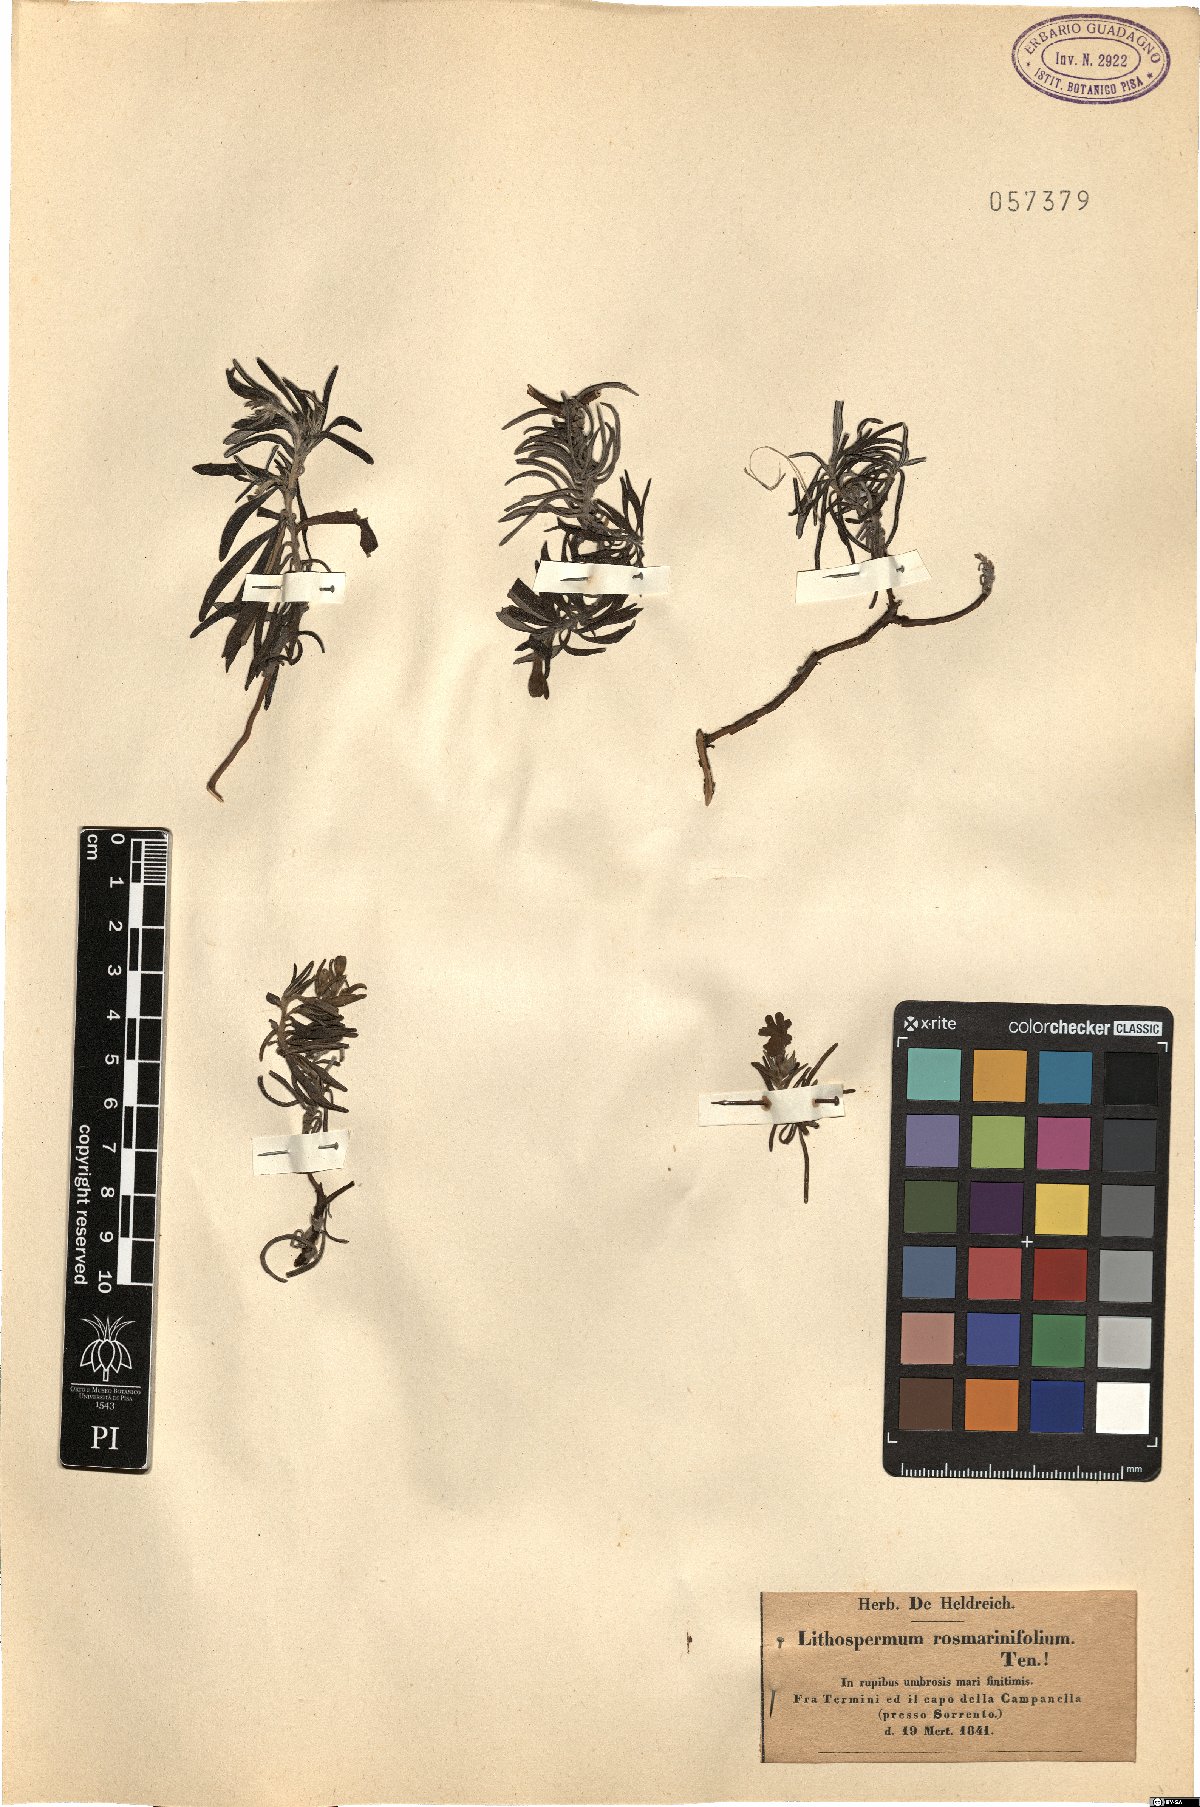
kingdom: Plantae
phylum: Tracheophyta
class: Magnoliopsida
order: Boraginales
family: Boraginaceae
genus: Glandora
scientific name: Glandora rosmarinifolia
